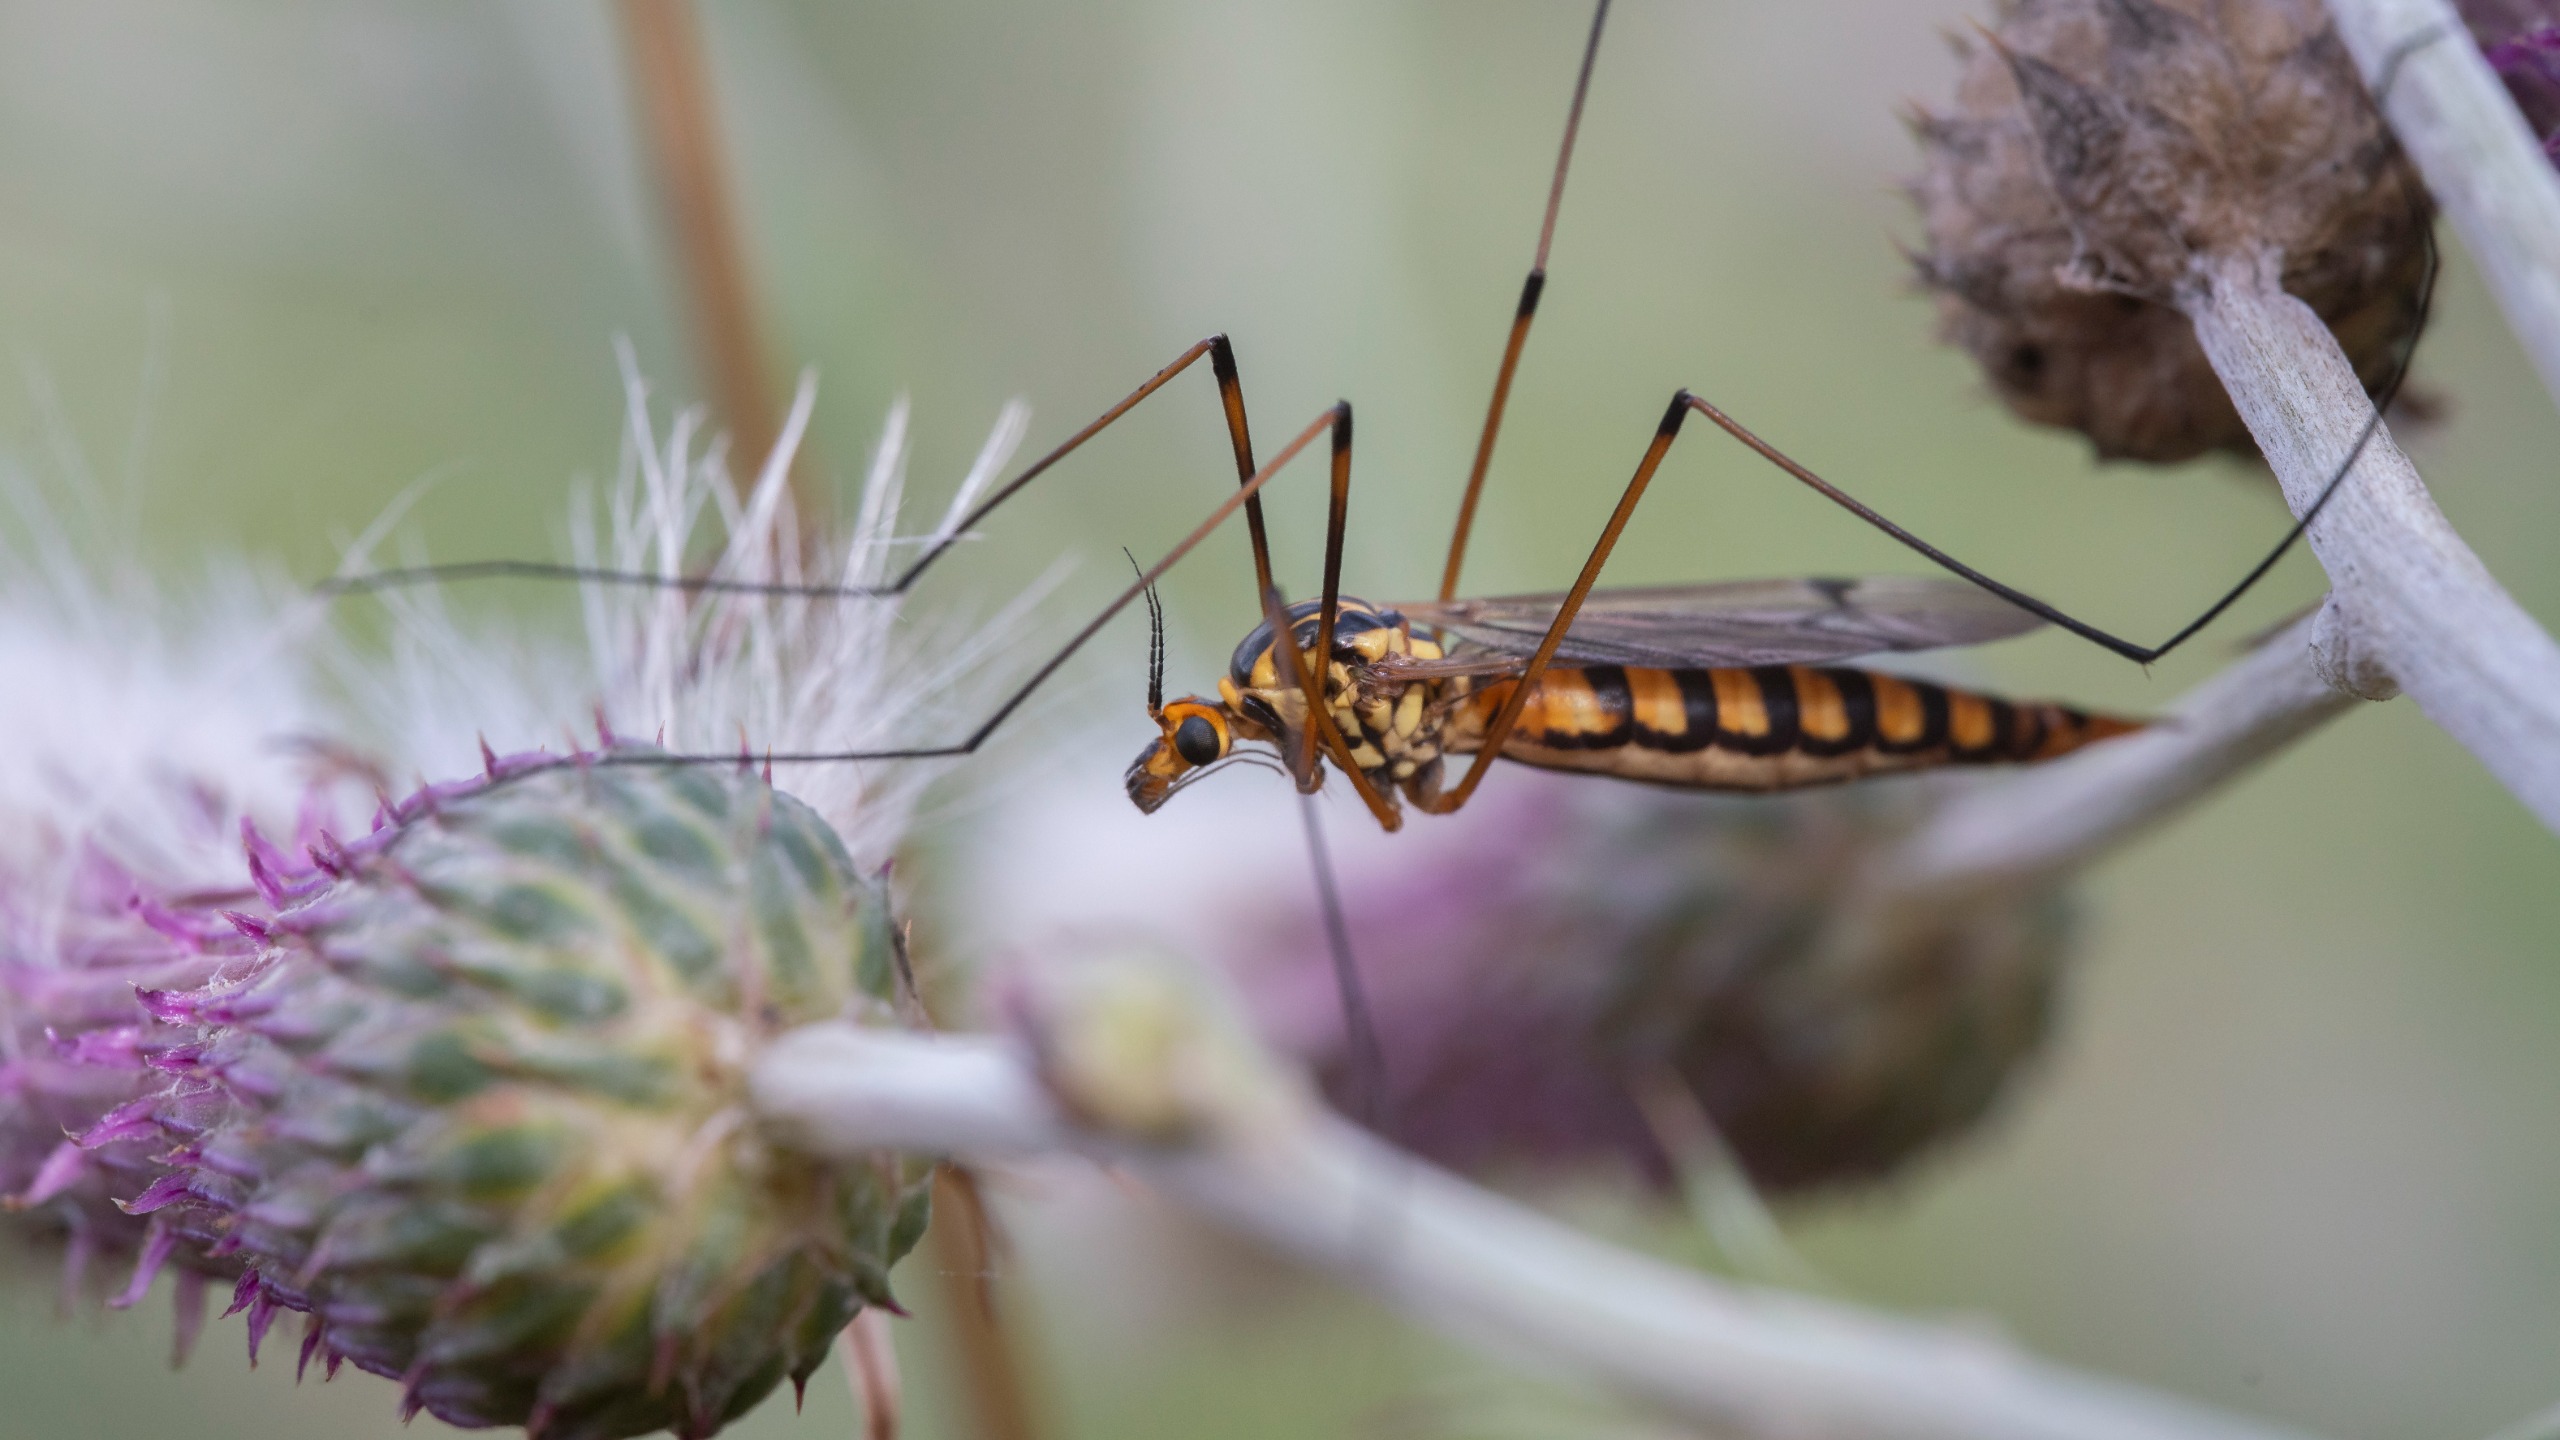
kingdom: Animalia
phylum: Arthropoda
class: Insecta
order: Diptera
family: Tipulidae
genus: Nephrotoma
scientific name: Nephrotoma scalaris
